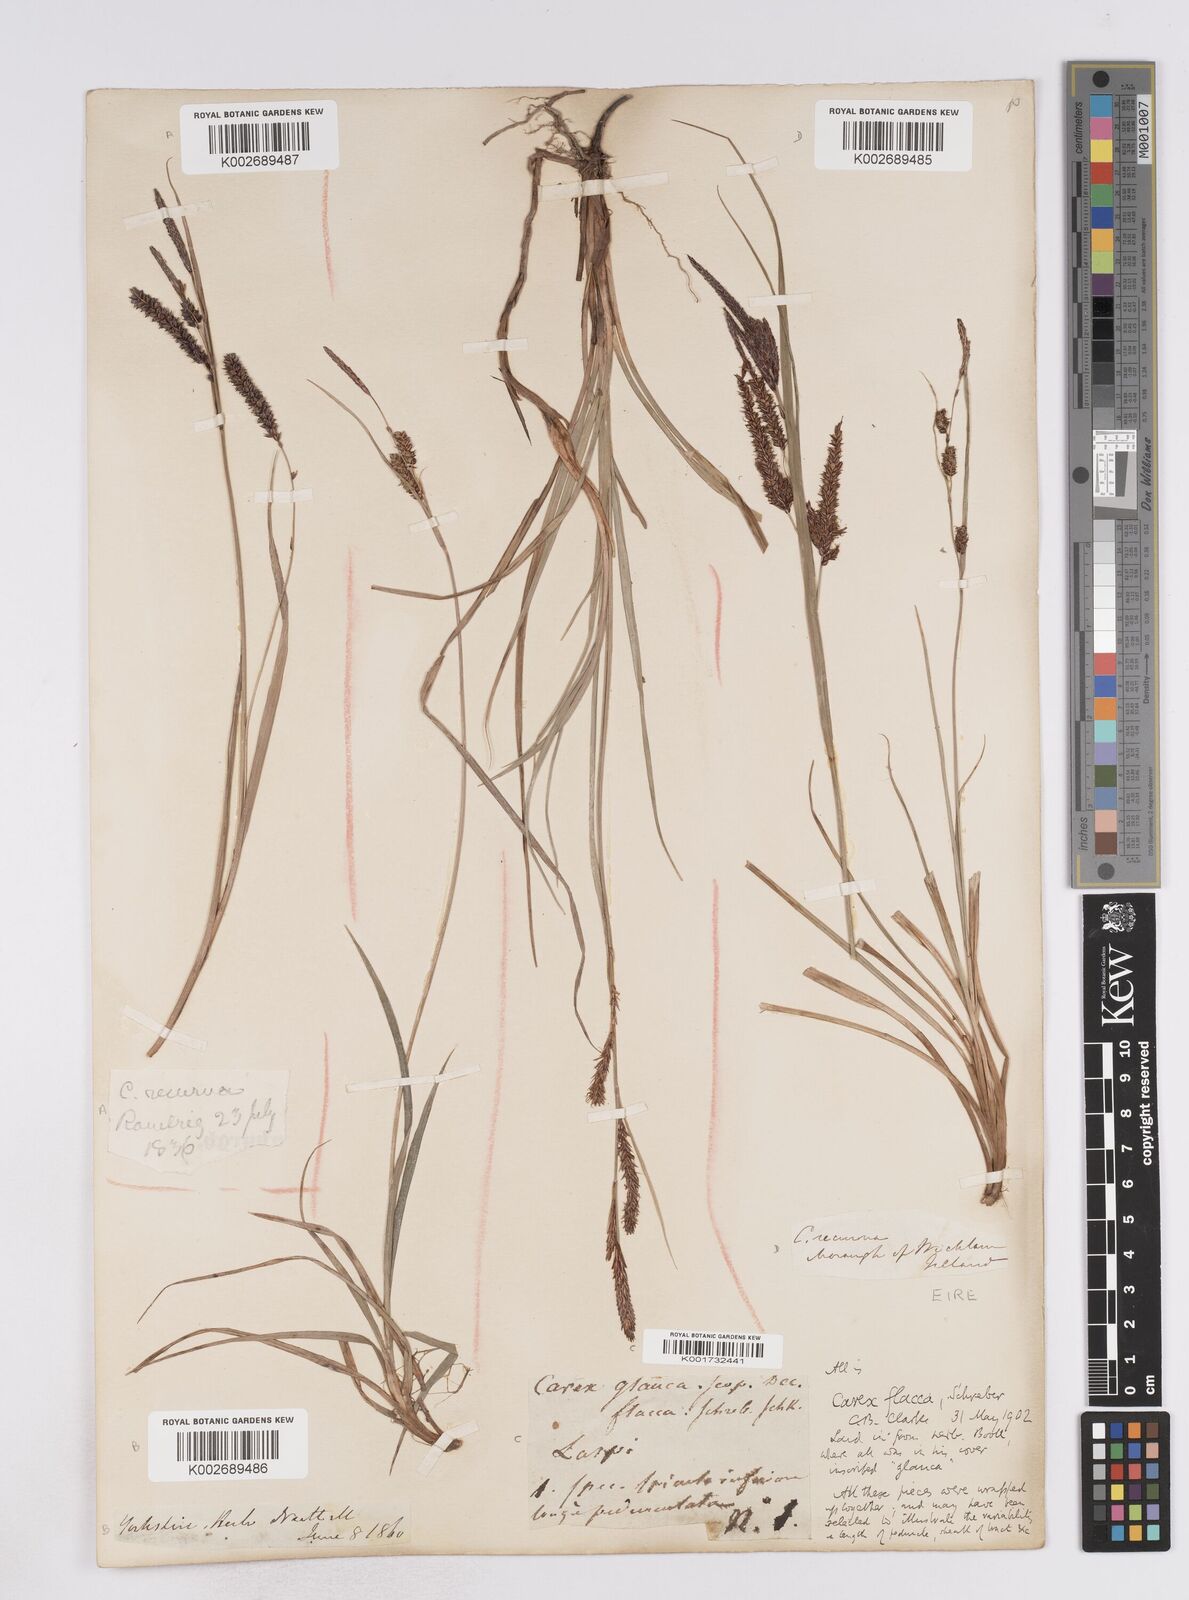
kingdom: Plantae
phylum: Tracheophyta
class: Liliopsida
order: Poales
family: Cyperaceae
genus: Carex
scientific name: Carex flacca
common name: Glaucous sedge
